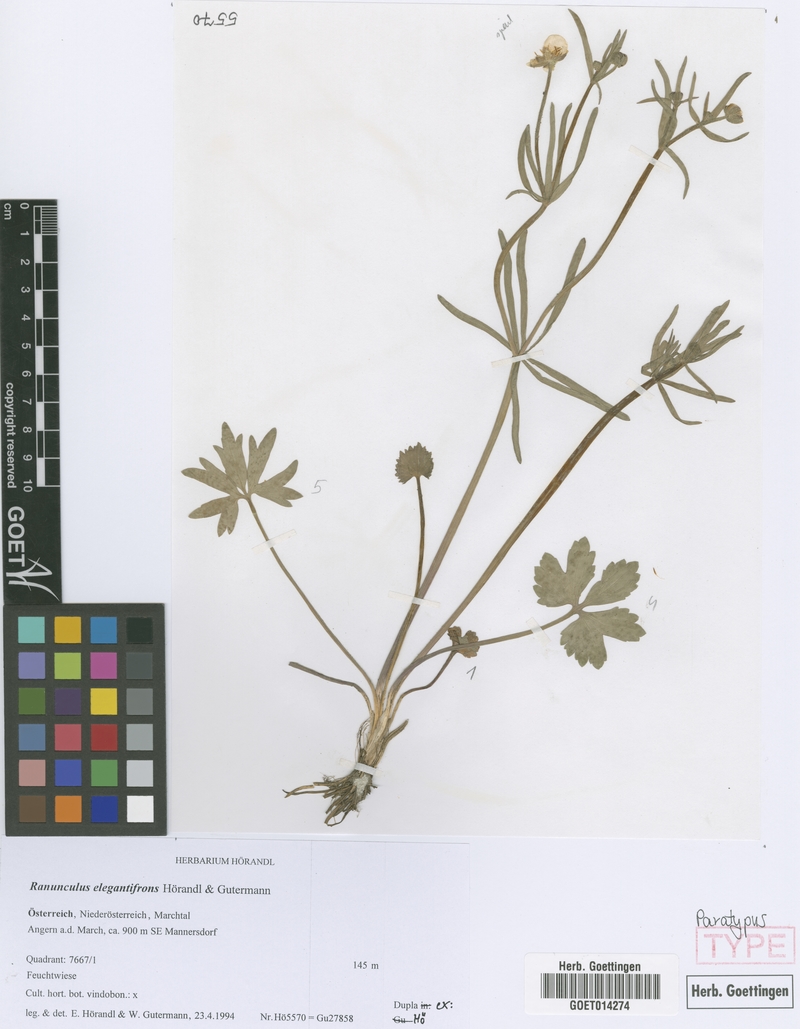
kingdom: Plantae
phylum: Tracheophyta
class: Magnoliopsida
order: Ranunculales
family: Ranunculaceae
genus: Ranunculus
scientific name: Ranunculus elegantifrons
